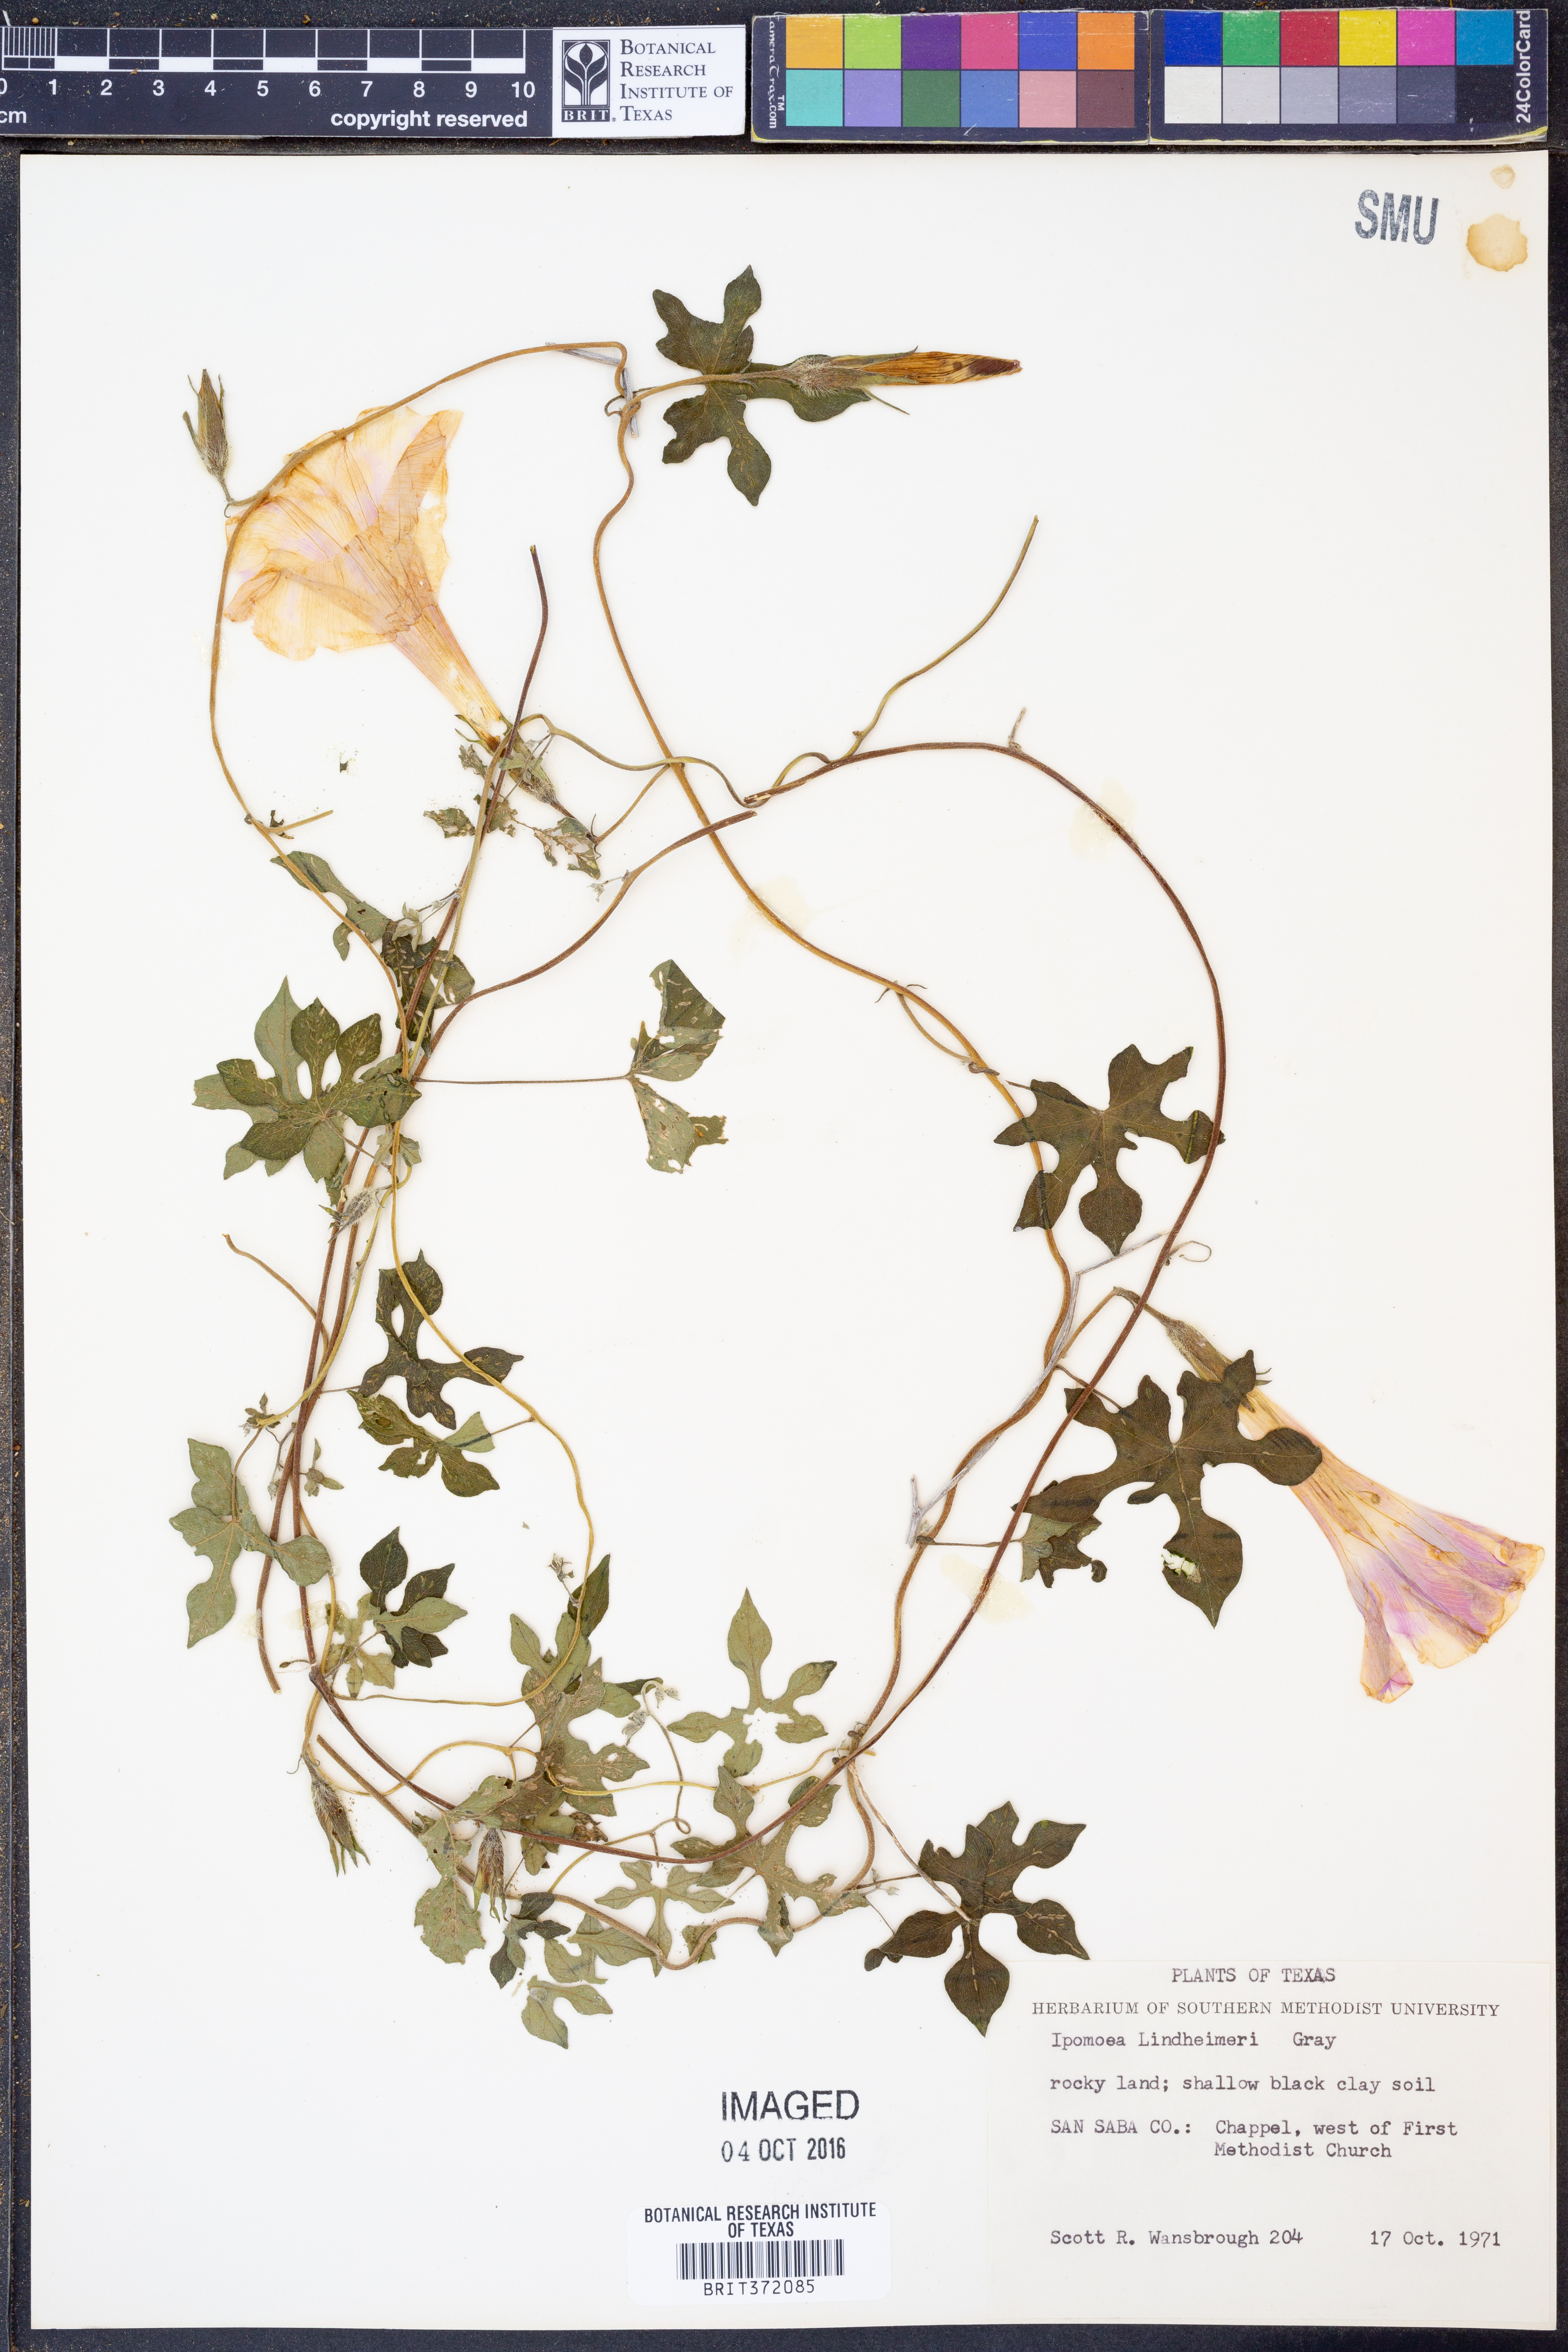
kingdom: Plantae
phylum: Tracheophyta
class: Magnoliopsida
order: Solanales
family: Convolvulaceae
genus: Ipomoea
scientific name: Ipomoea lindheimeri
